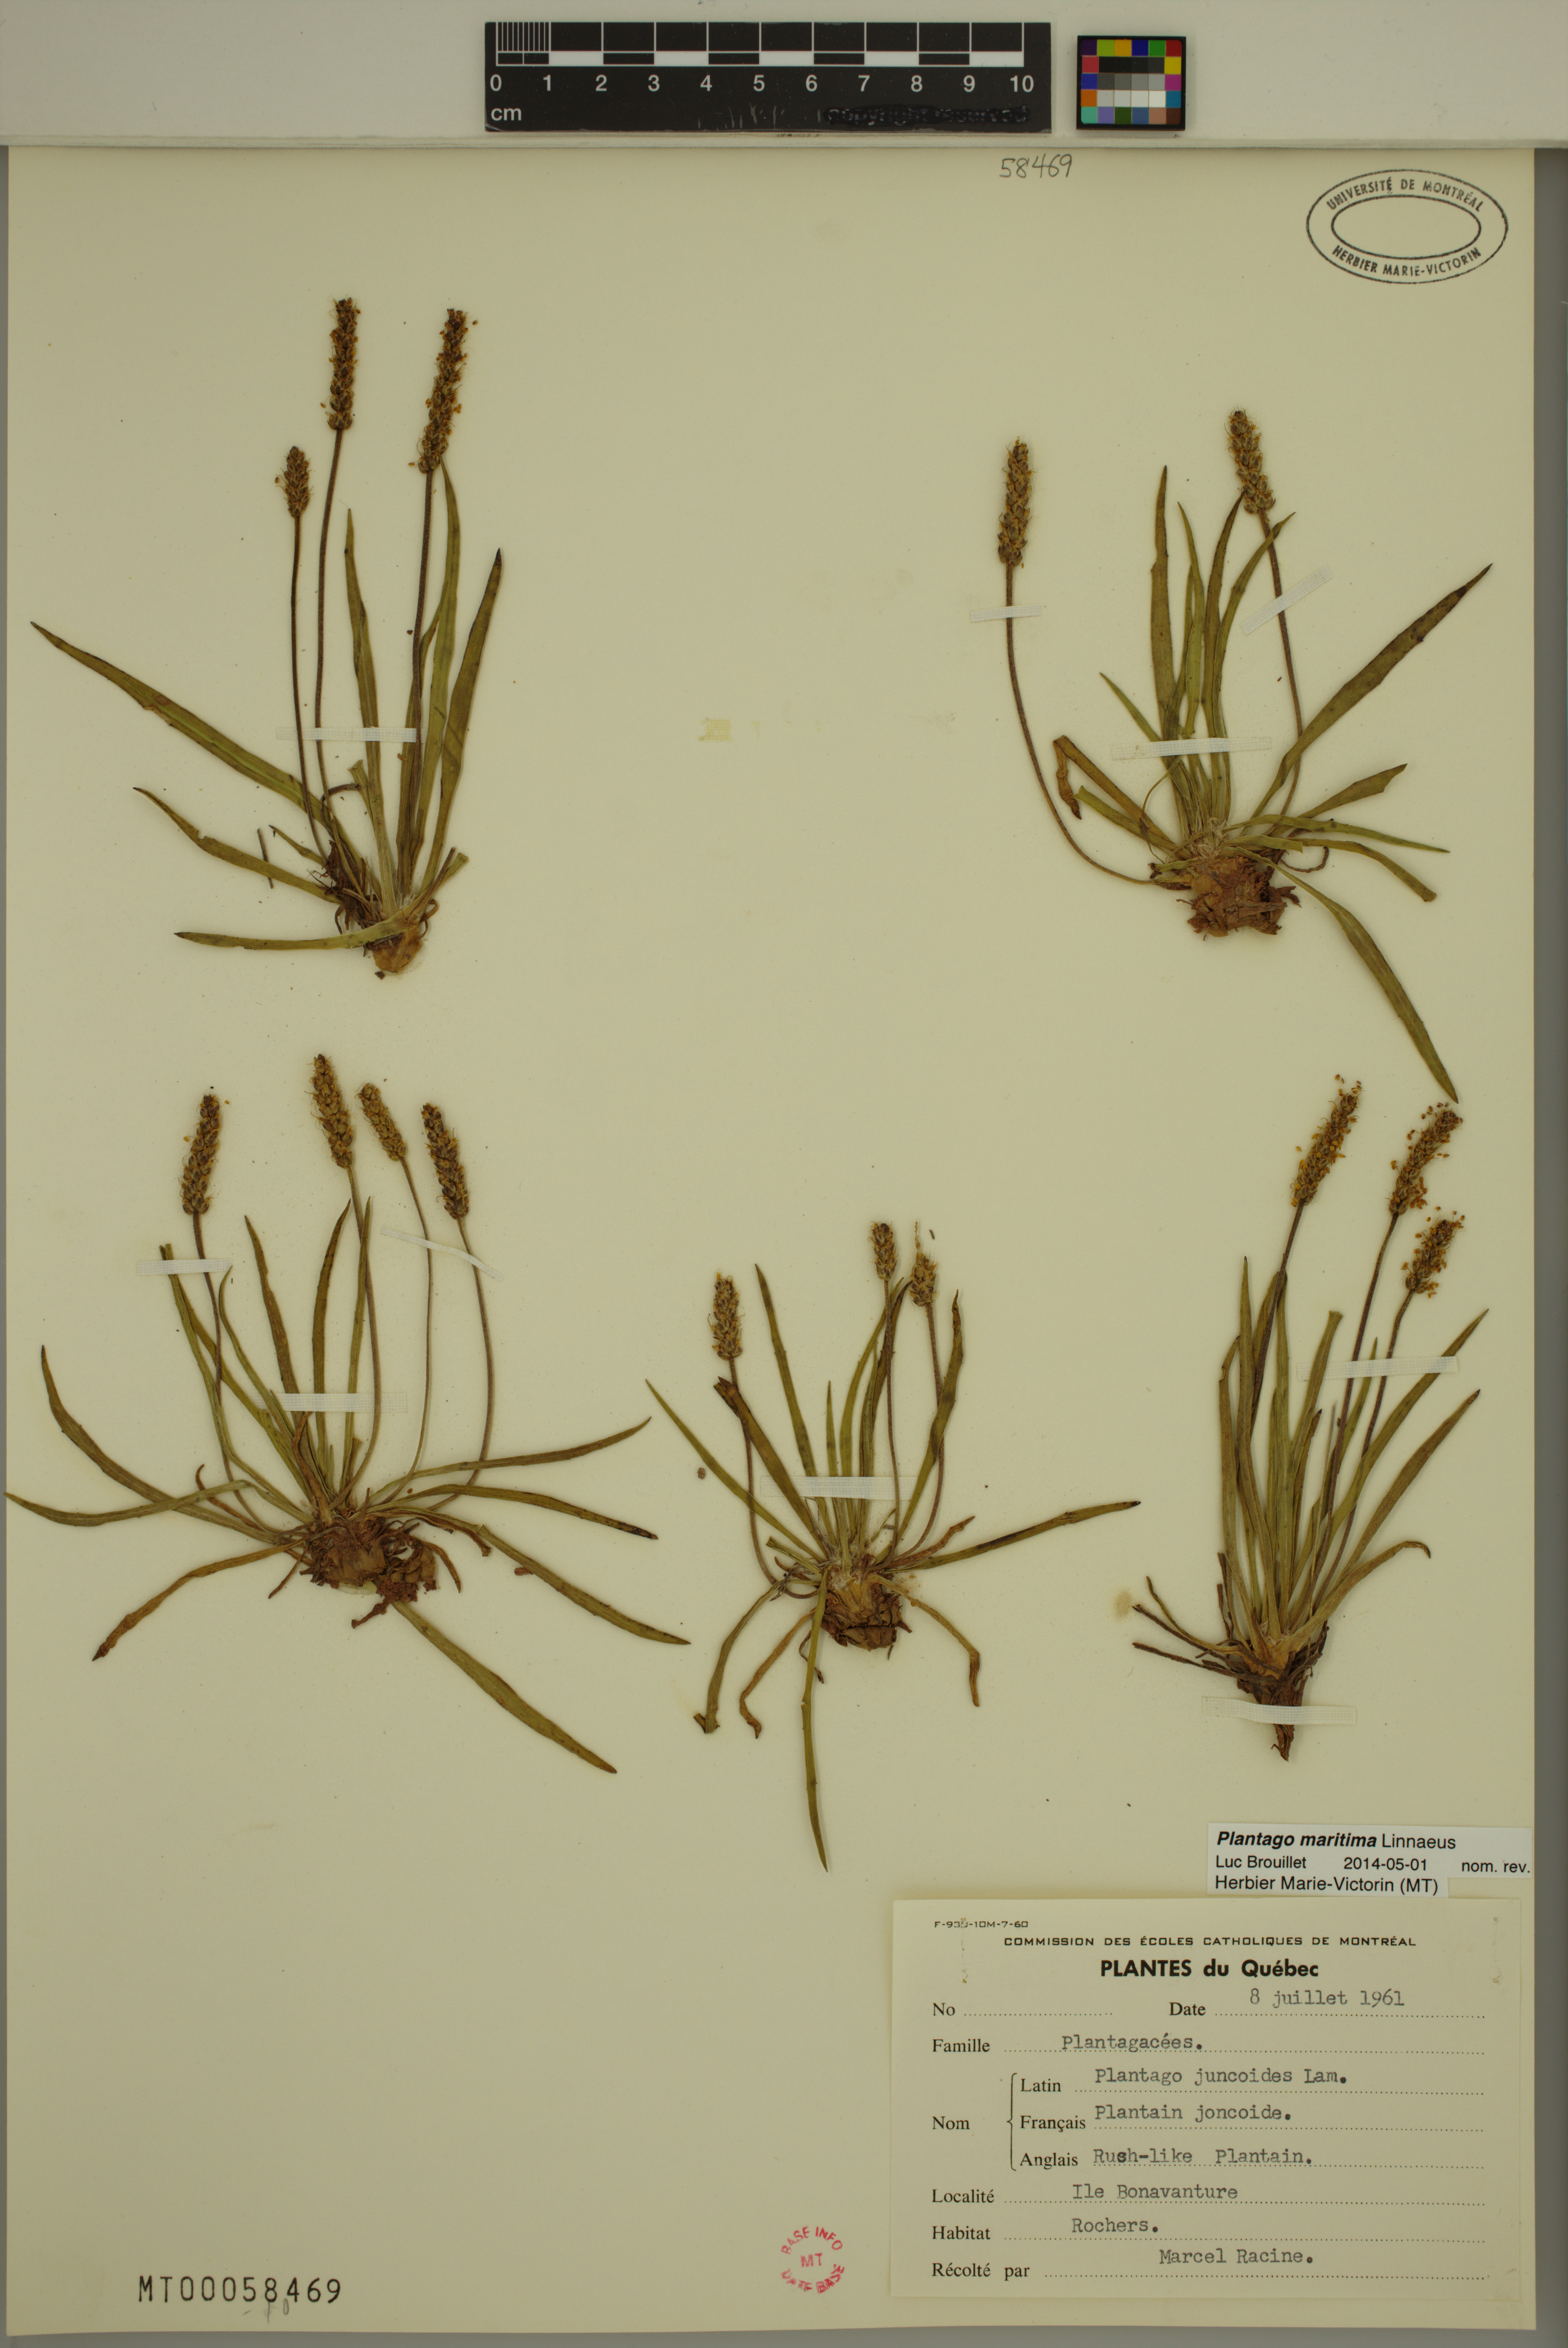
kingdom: Plantae
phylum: Tracheophyta
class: Magnoliopsida
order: Lamiales
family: Plantaginaceae
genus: Plantago
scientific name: Plantago maritima
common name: Sea plantain
